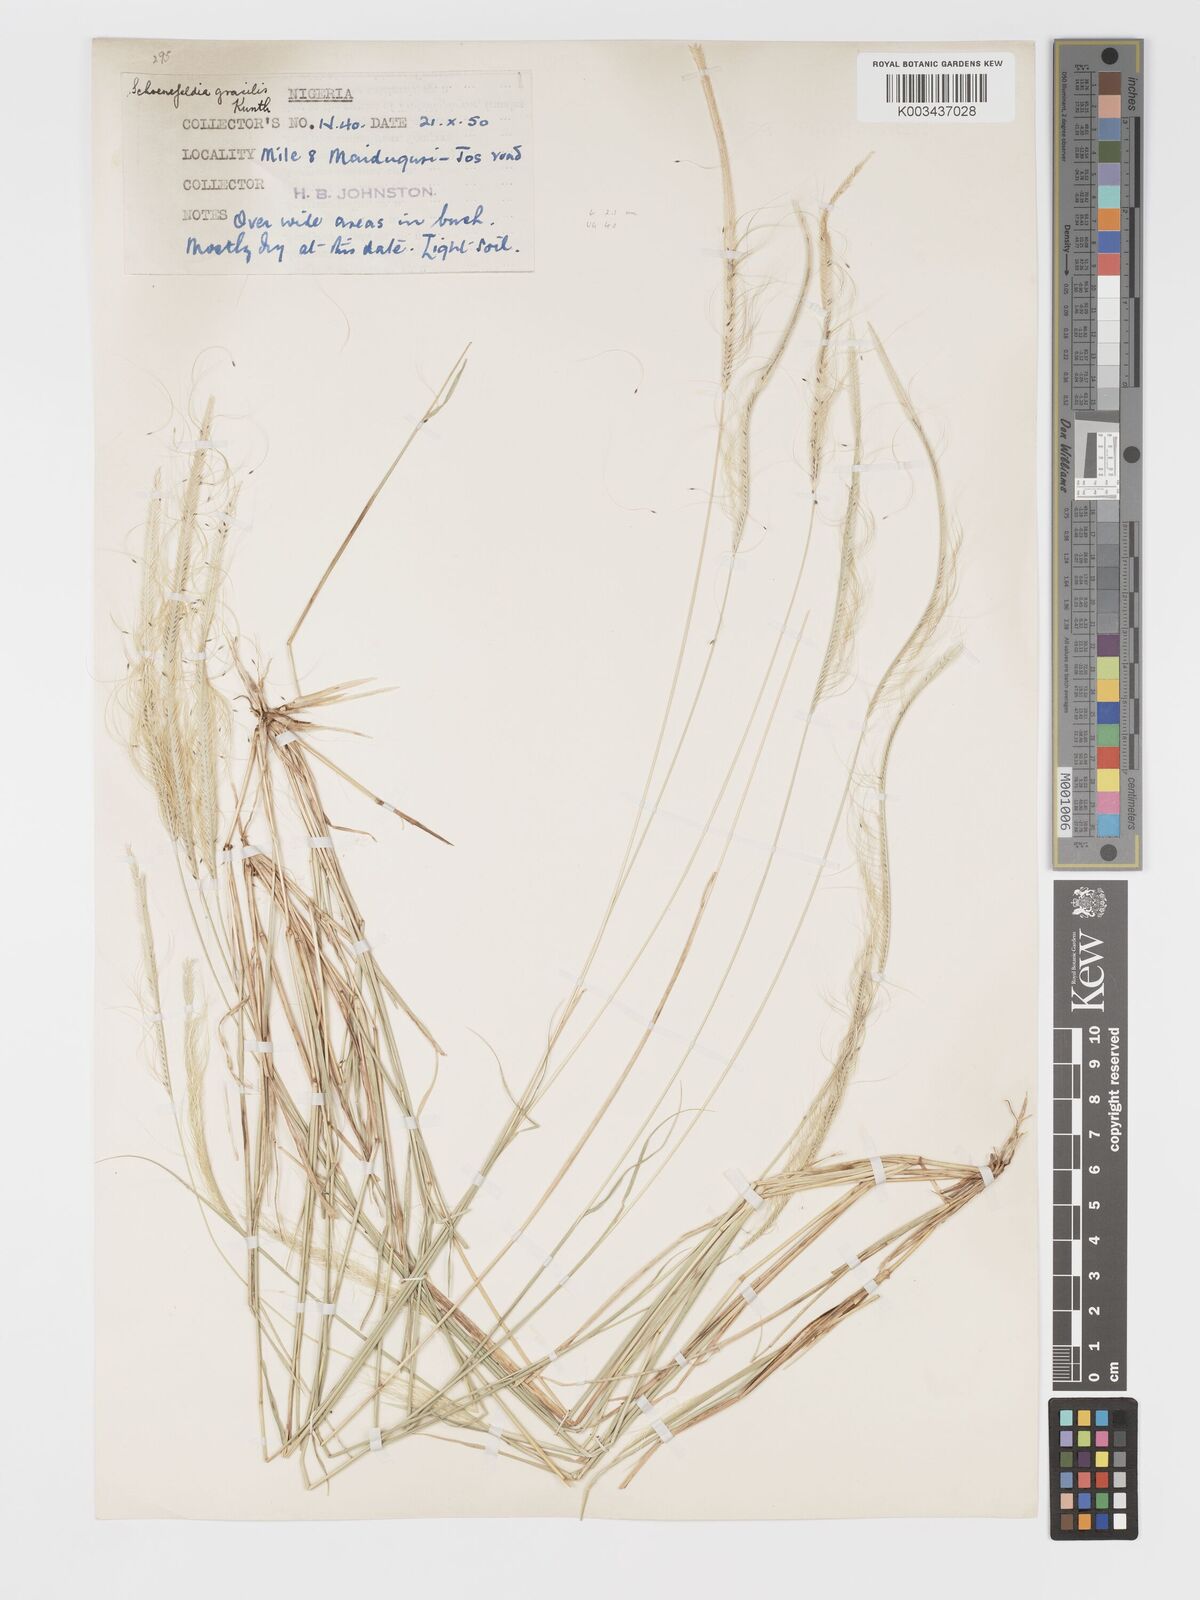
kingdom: Plantae
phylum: Tracheophyta
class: Liliopsida
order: Poales
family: Poaceae
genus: Schoenefeldia
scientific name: Schoenefeldia gracilis
